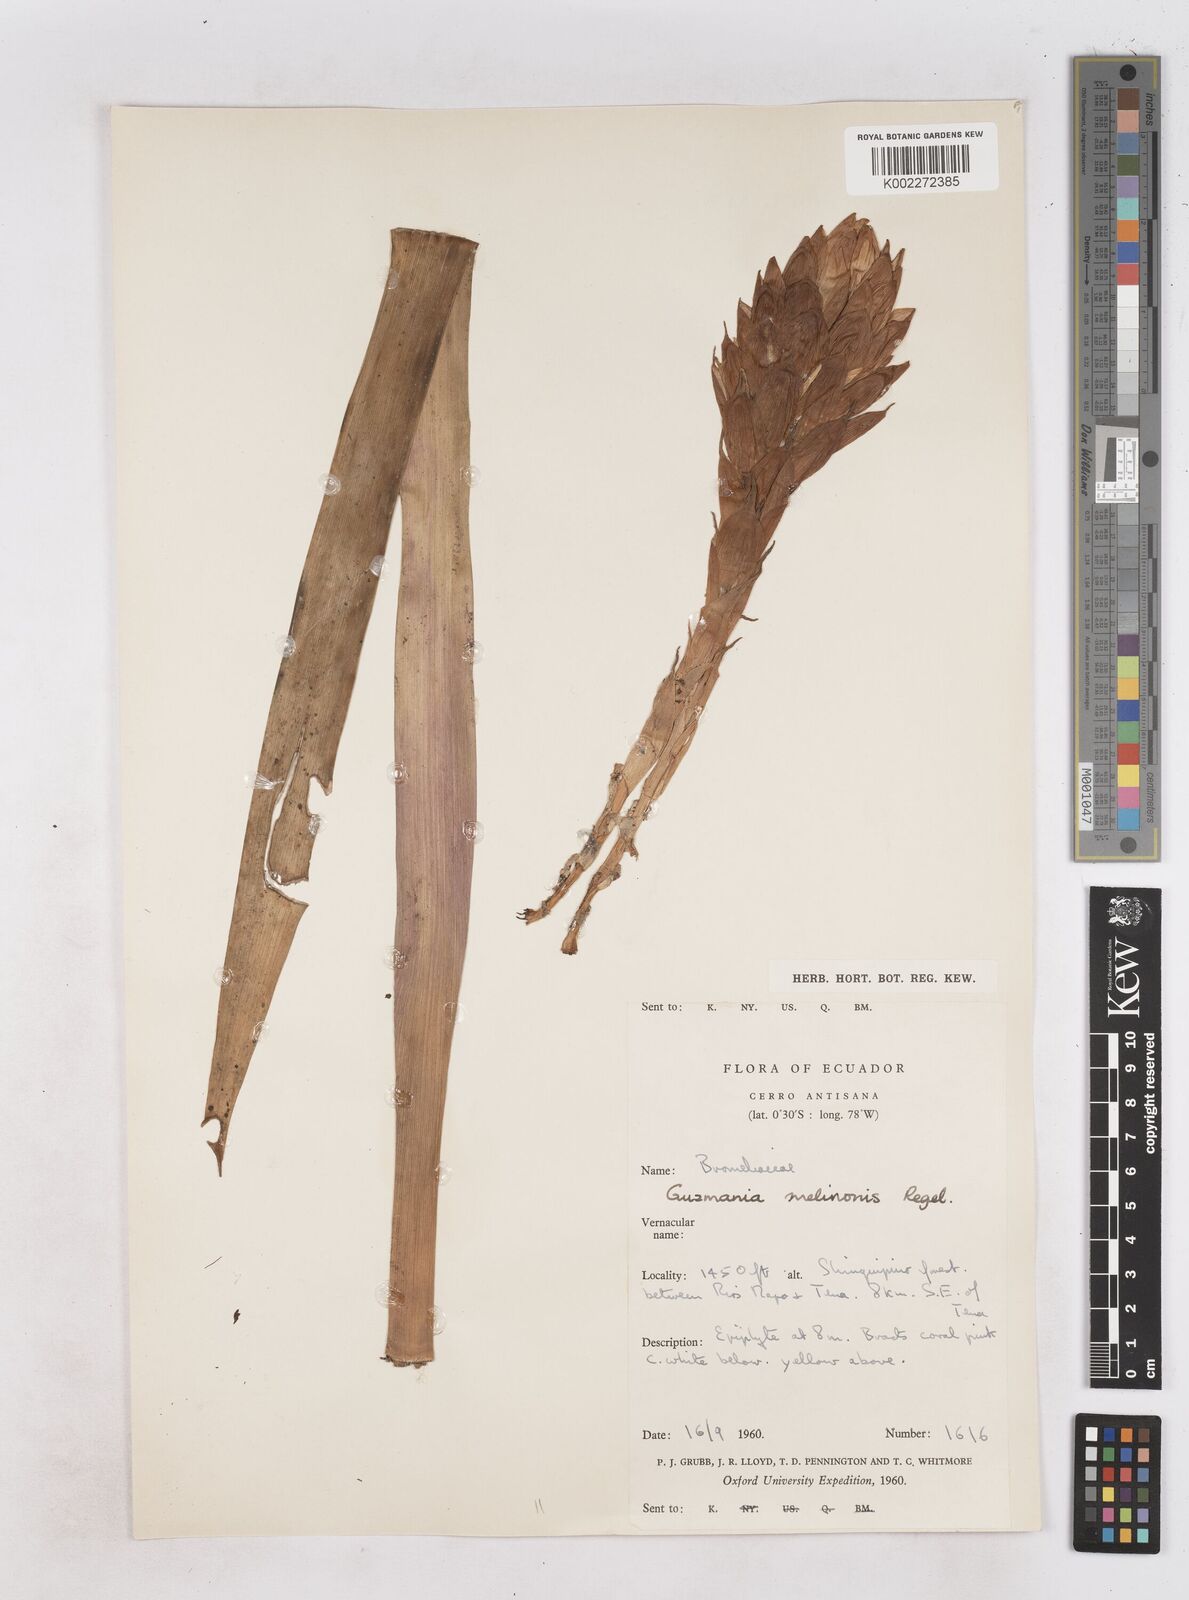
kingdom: Plantae
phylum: Tracheophyta
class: Liliopsida
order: Poales
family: Bromeliaceae
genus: Guzmania
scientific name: Guzmania melinonis
